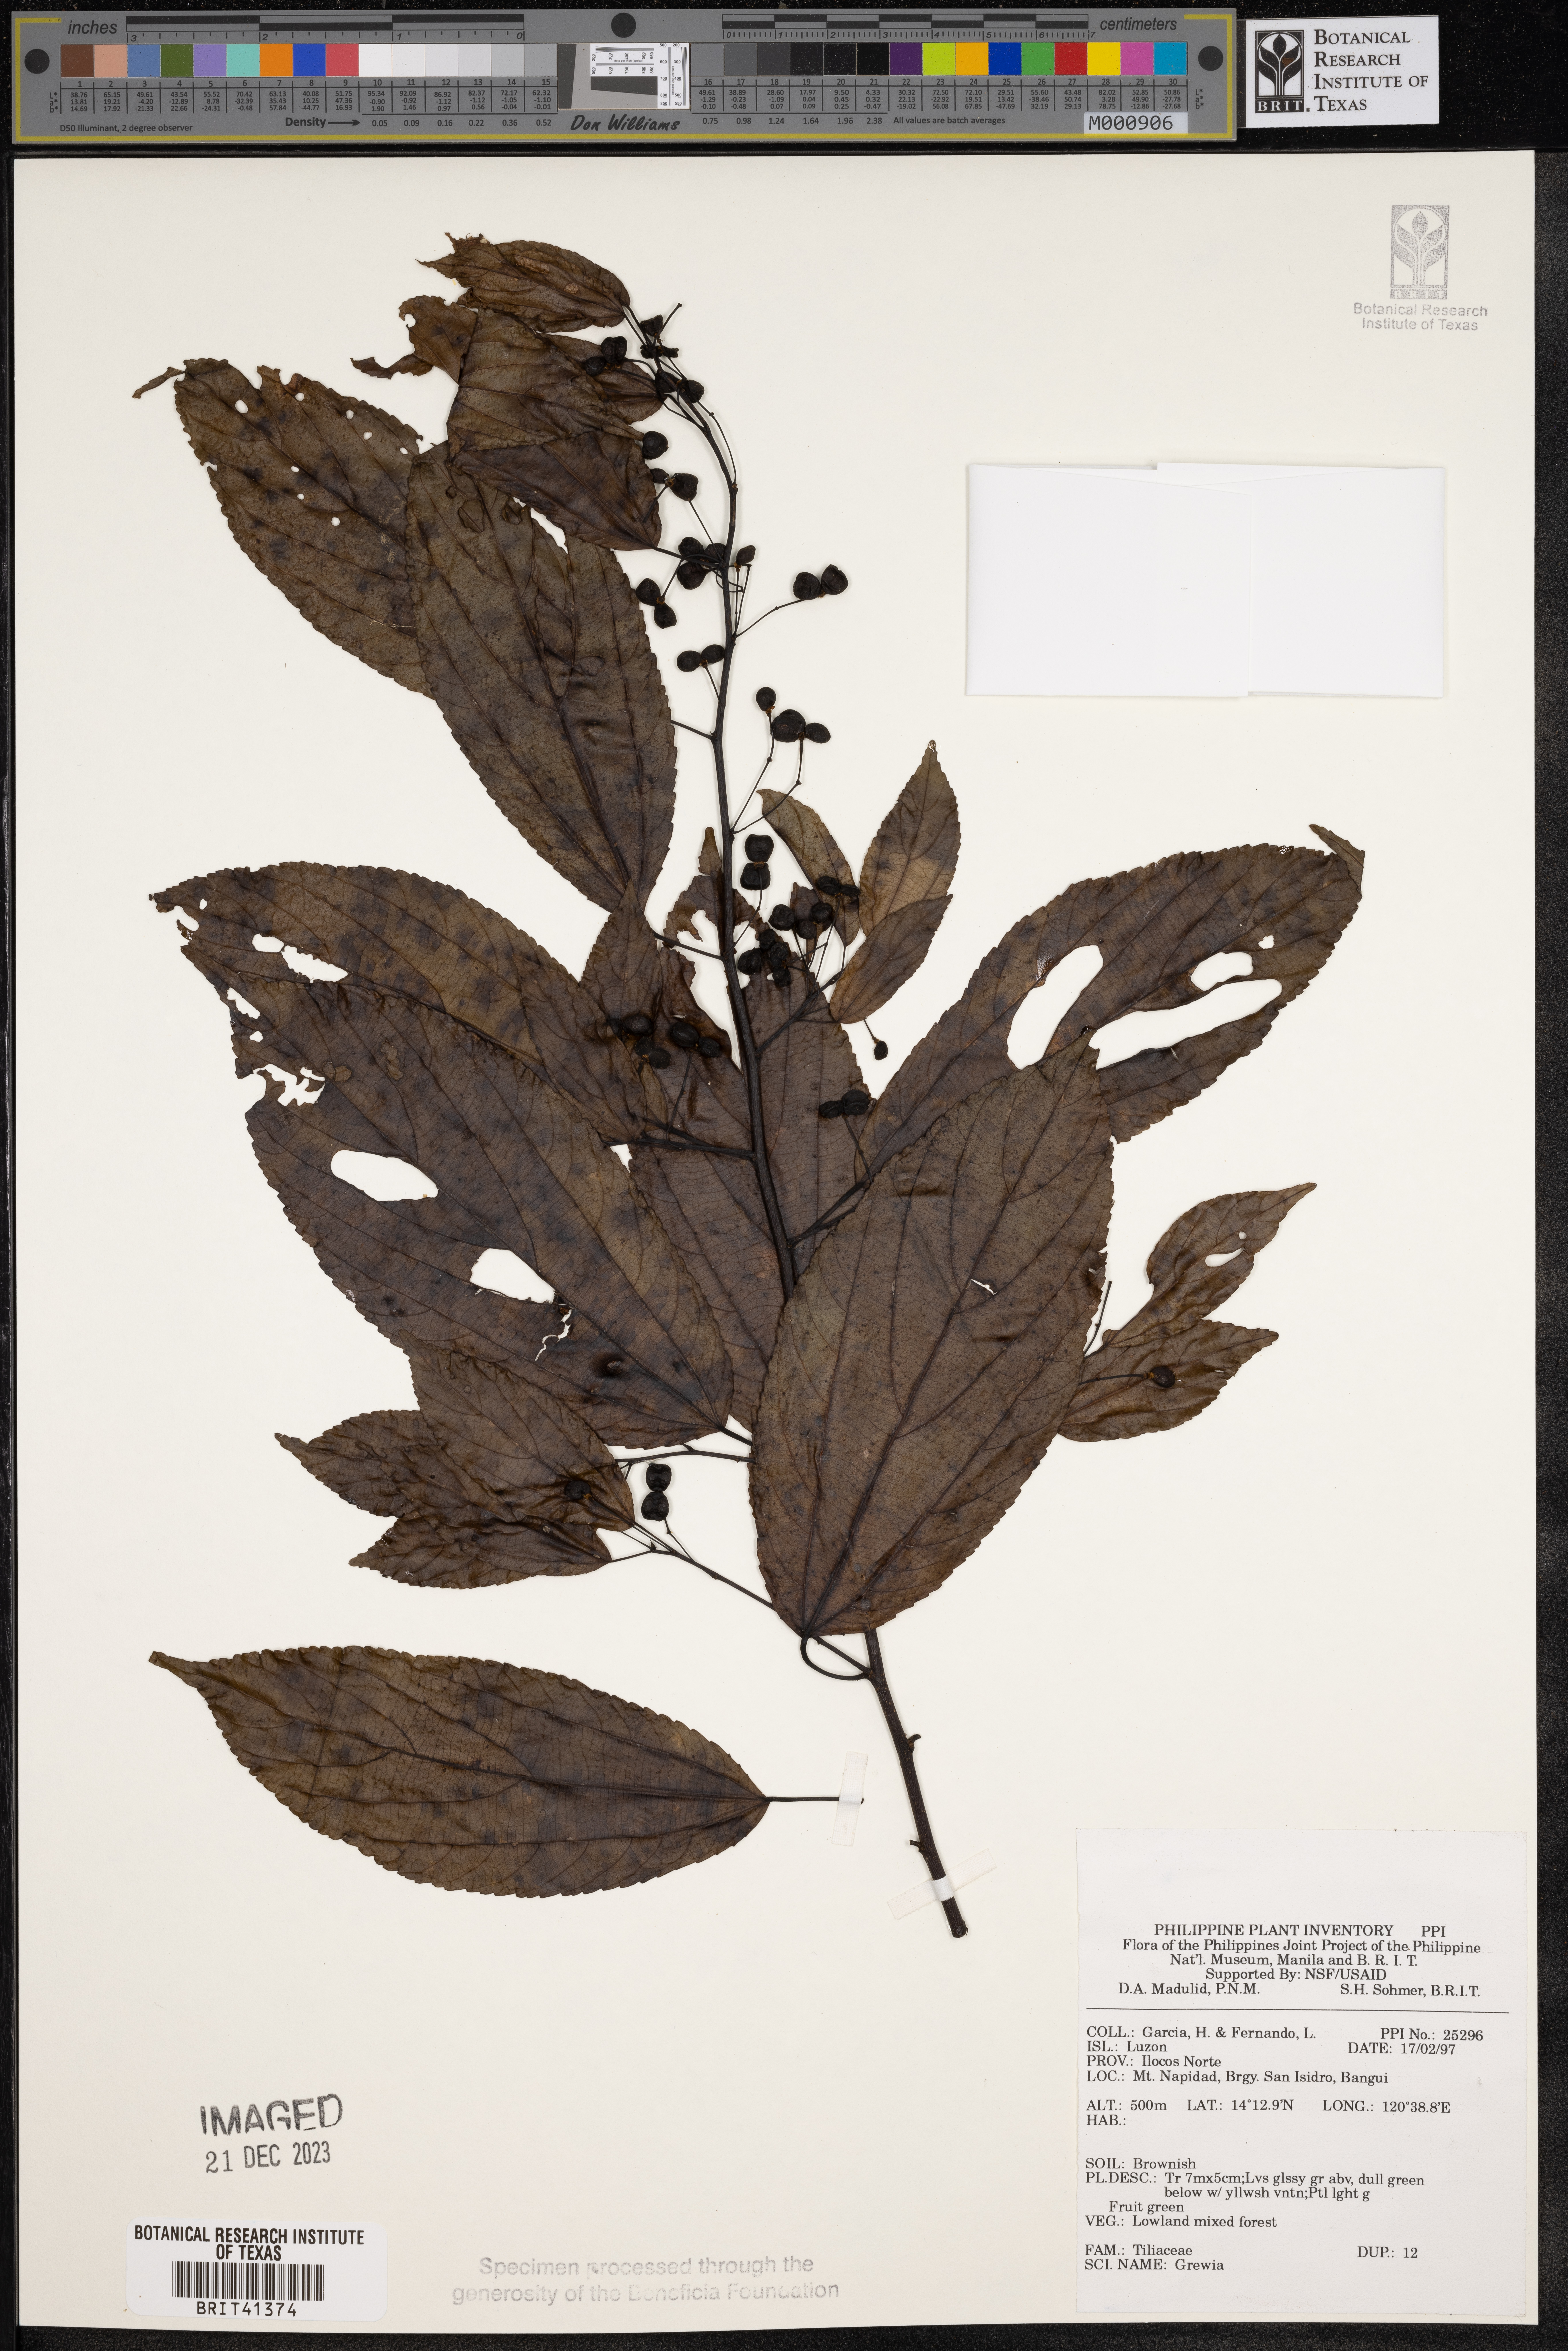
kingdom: Plantae
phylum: Tracheophyta
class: Magnoliopsida
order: Malvales
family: Malvaceae
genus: Grewia
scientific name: Grewia
